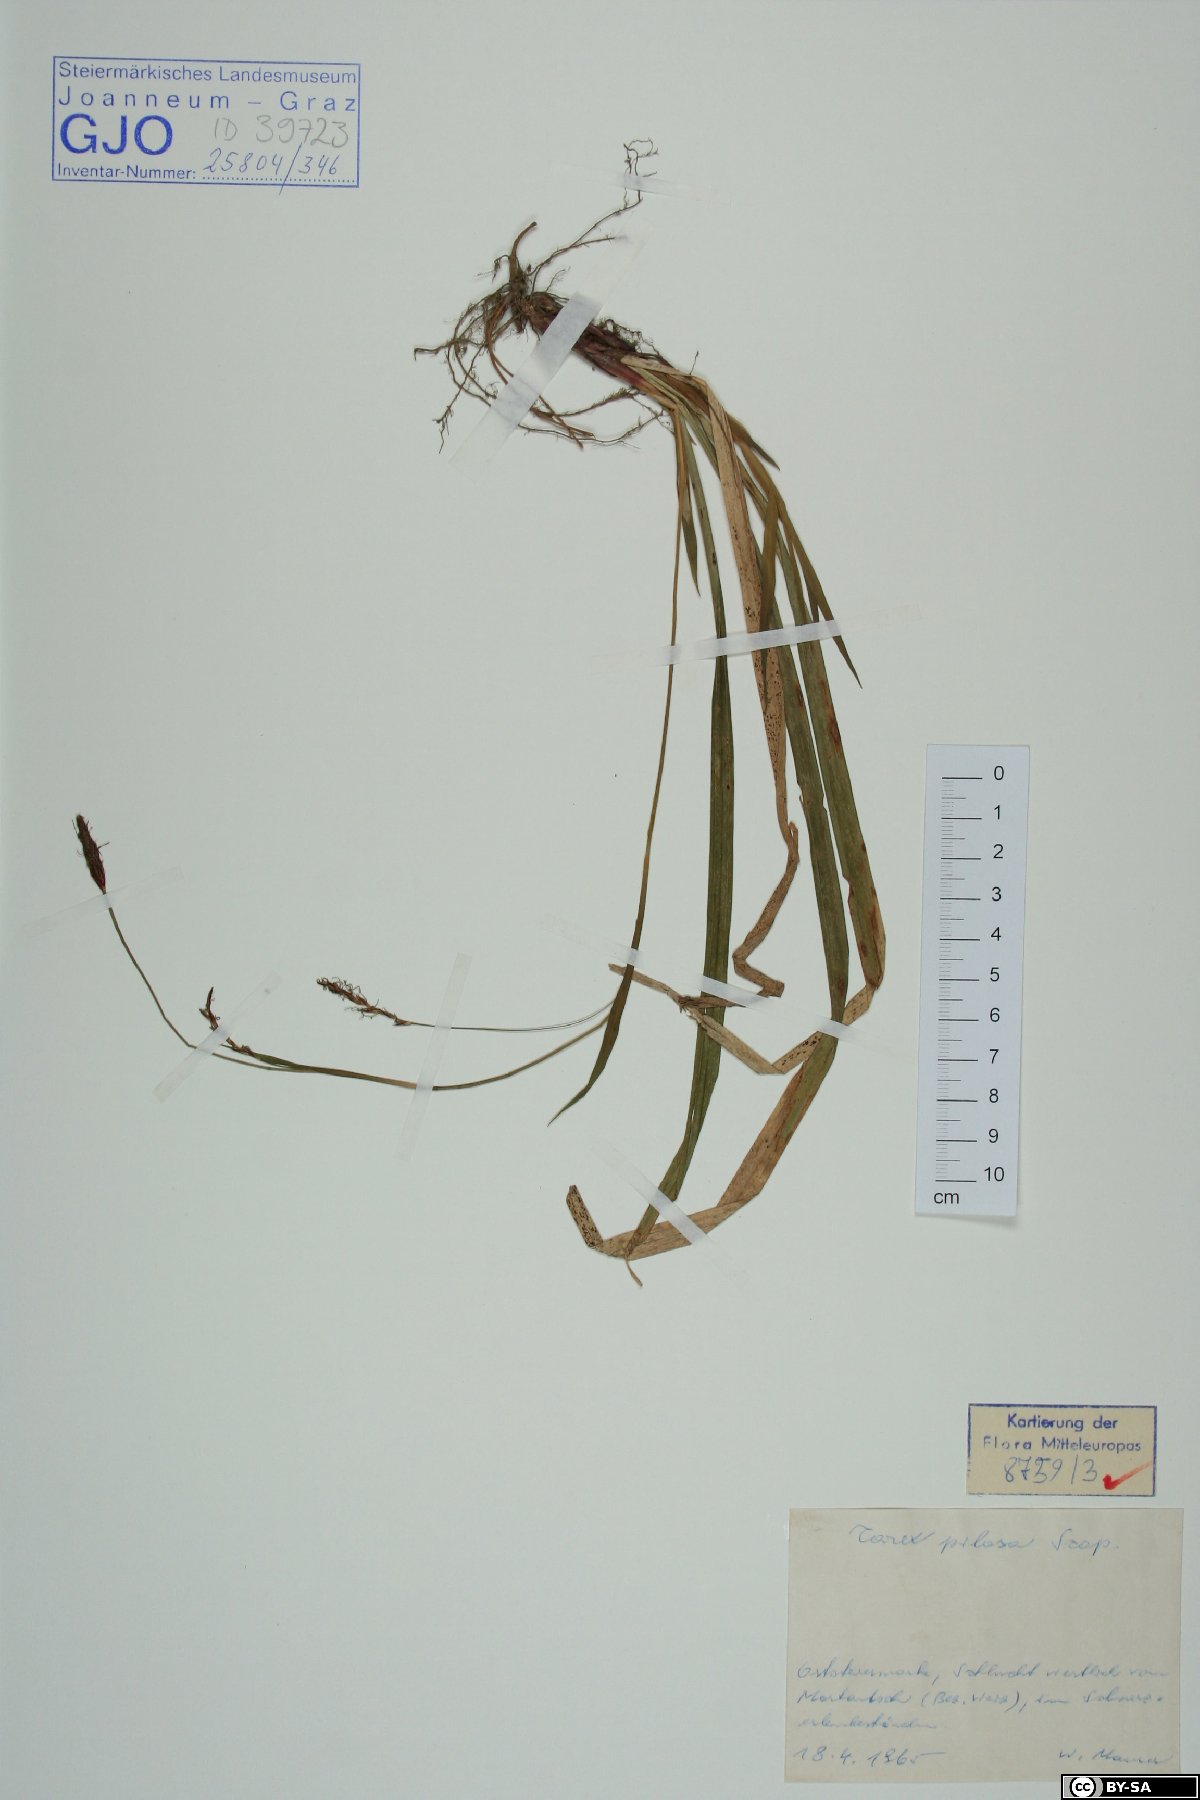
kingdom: Plantae
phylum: Tracheophyta
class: Liliopsida
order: Poales
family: Cyperaceae
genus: Carex
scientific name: Carex pilosa
